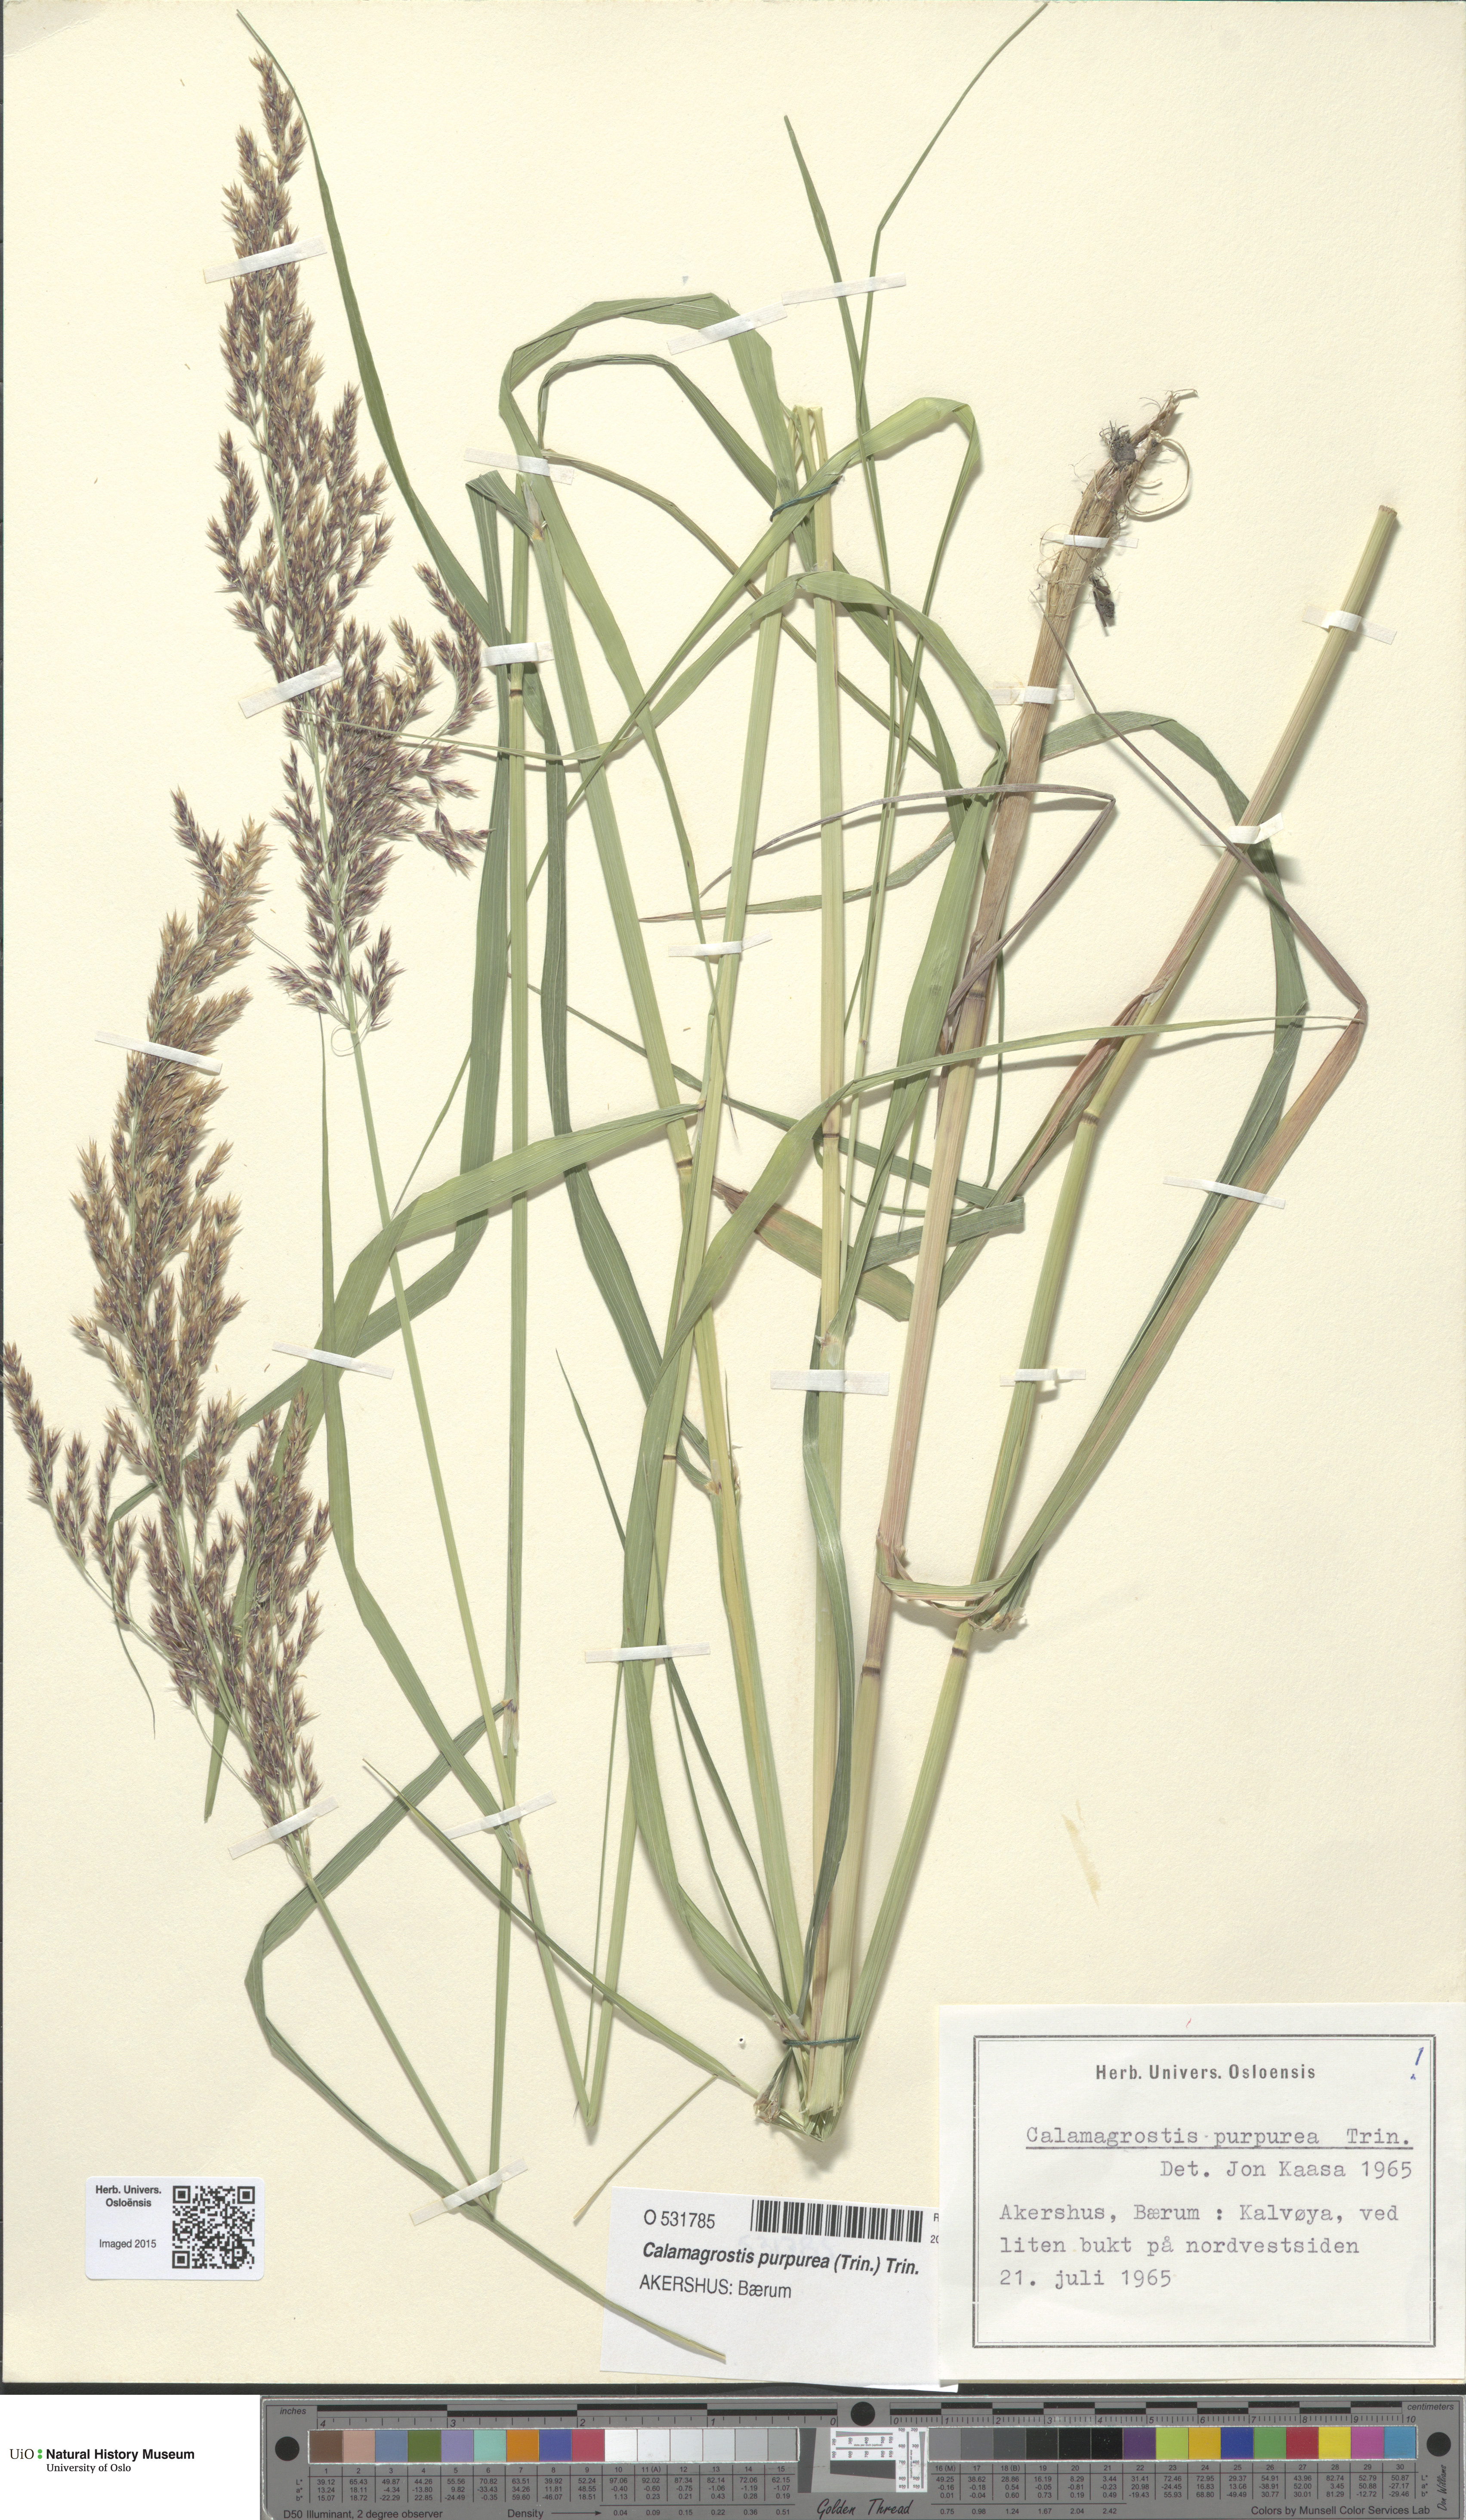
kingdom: Plantae
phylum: Tracheophyta
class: Liliopsida
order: Poales
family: Poaceae
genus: Calamagrostis
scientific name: Calamagrostis purpurea
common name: Scandinavian small-reed
